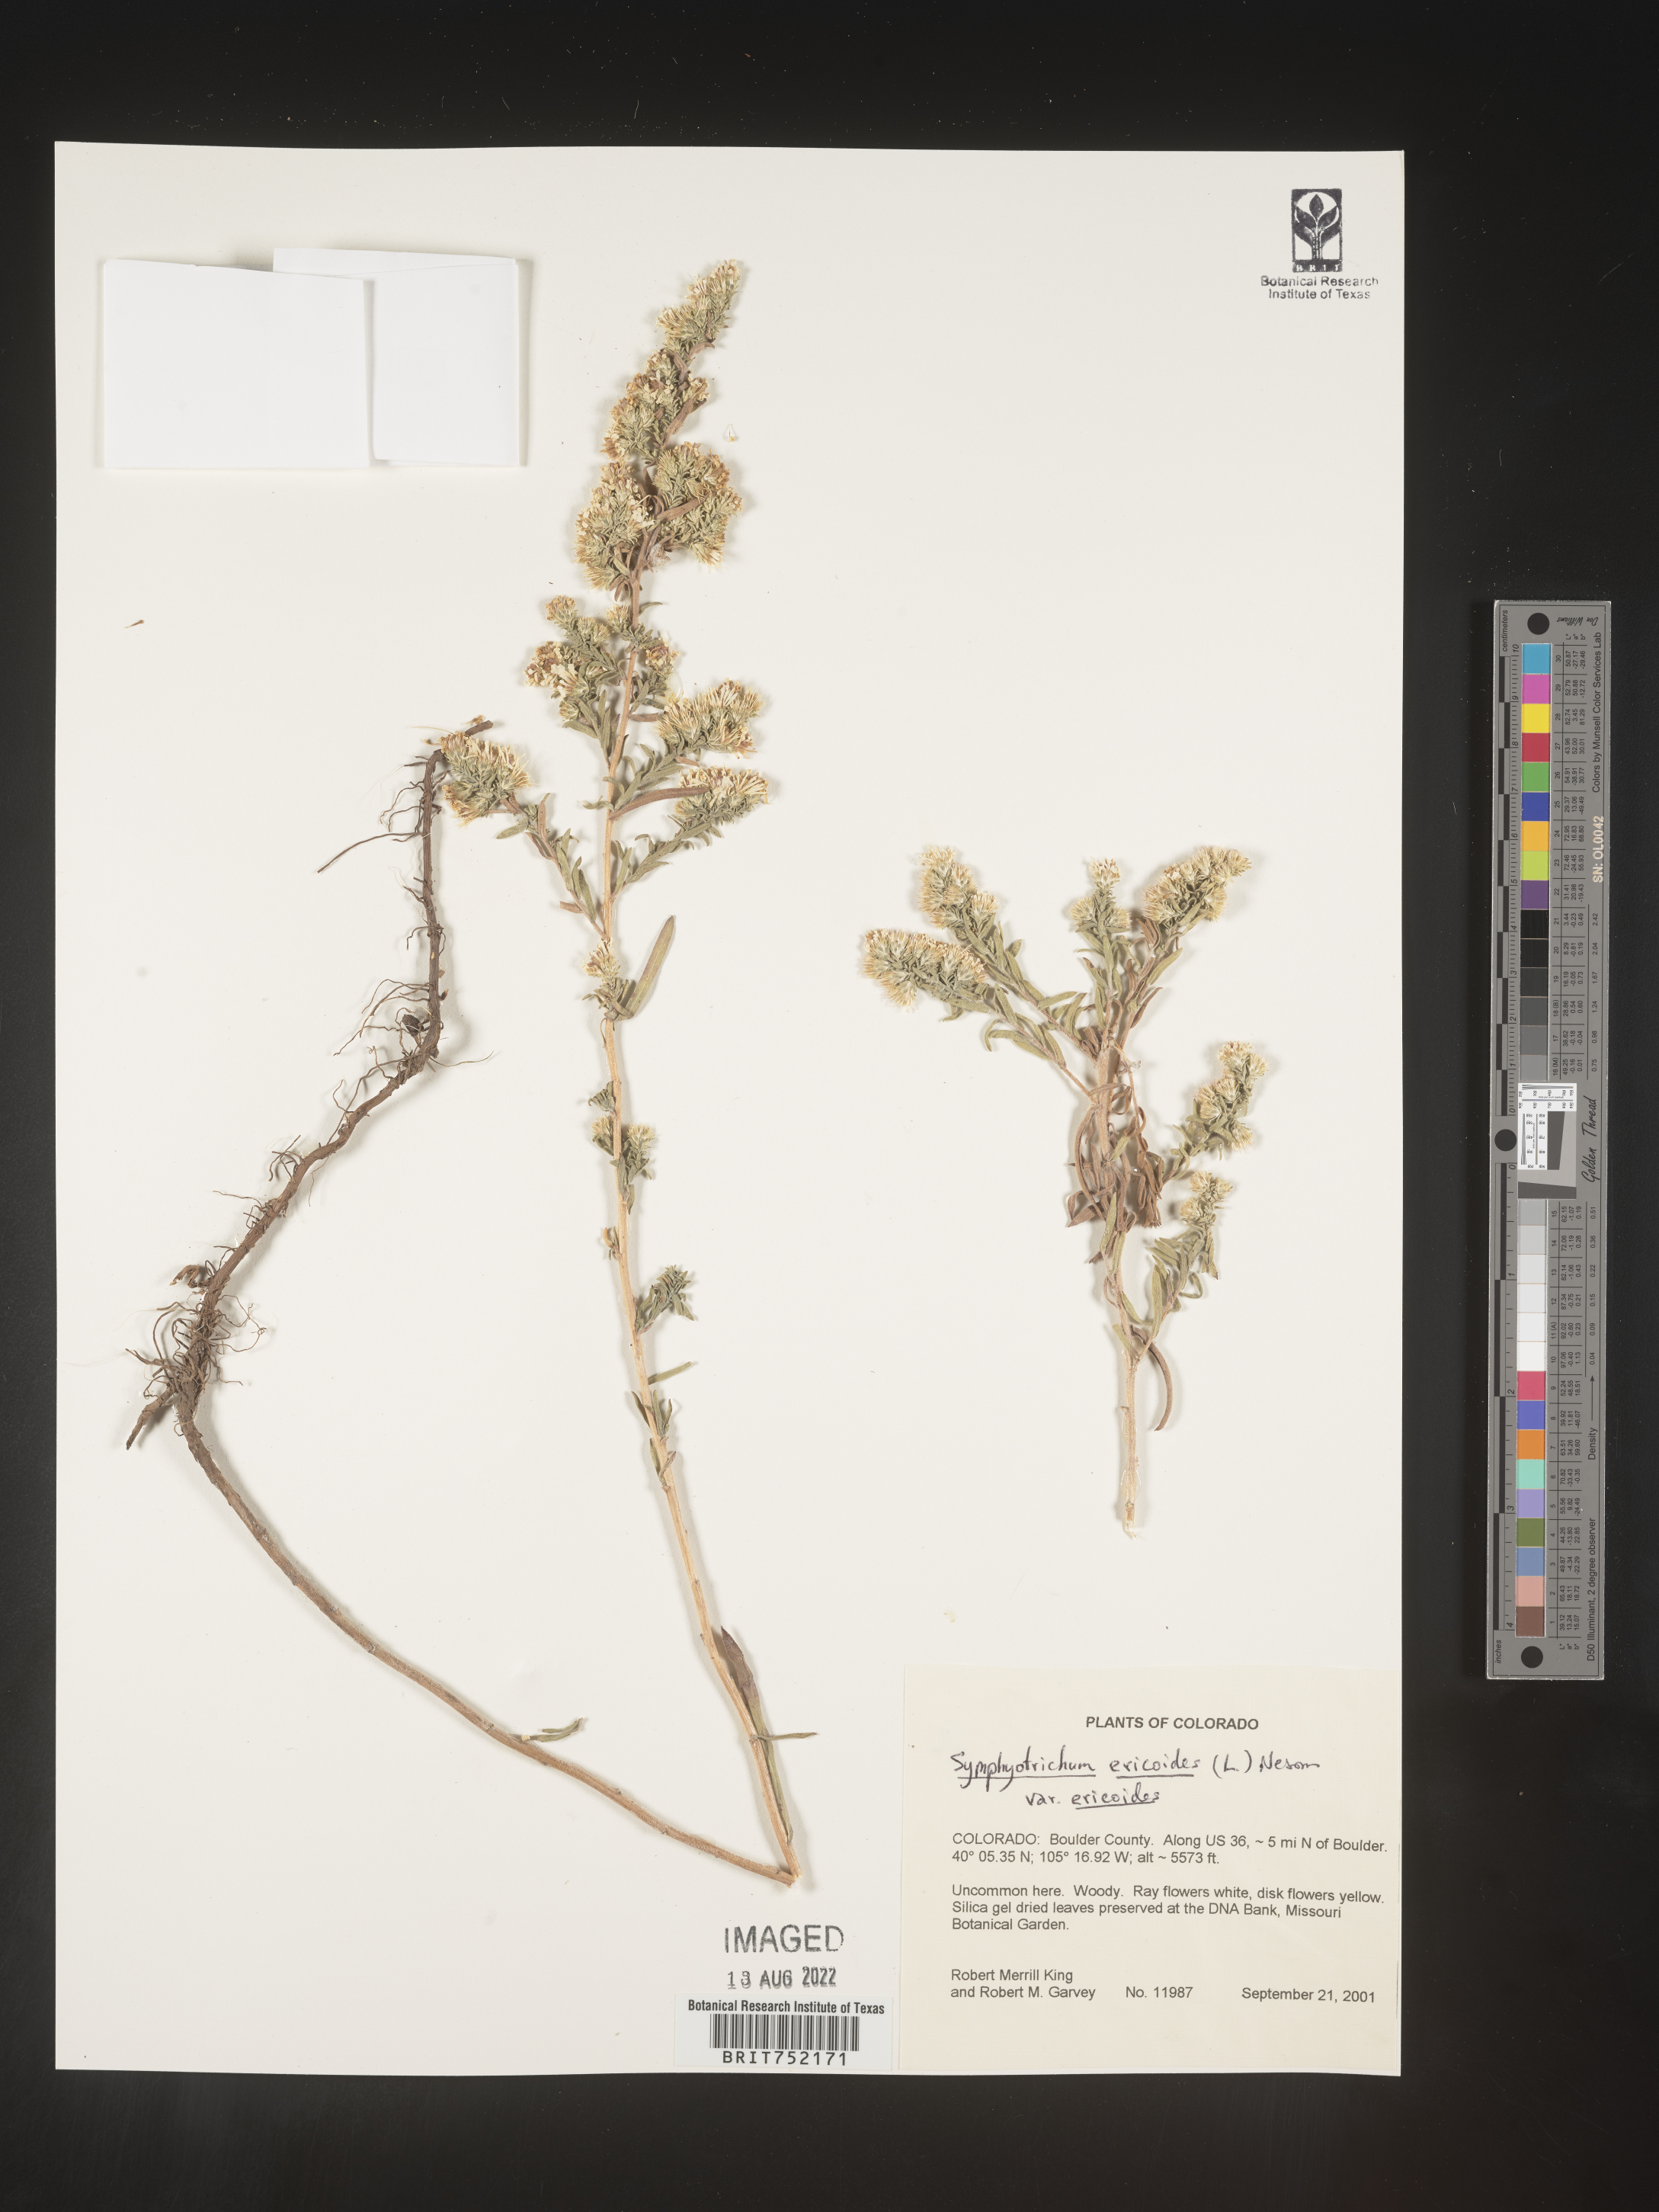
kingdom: Plantae
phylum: Tracheophyta
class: Magnoliopsida
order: Asterales
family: Asteraceae
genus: Symphyotrichum
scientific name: Symphyotrichum ericoides
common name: Heath aster
